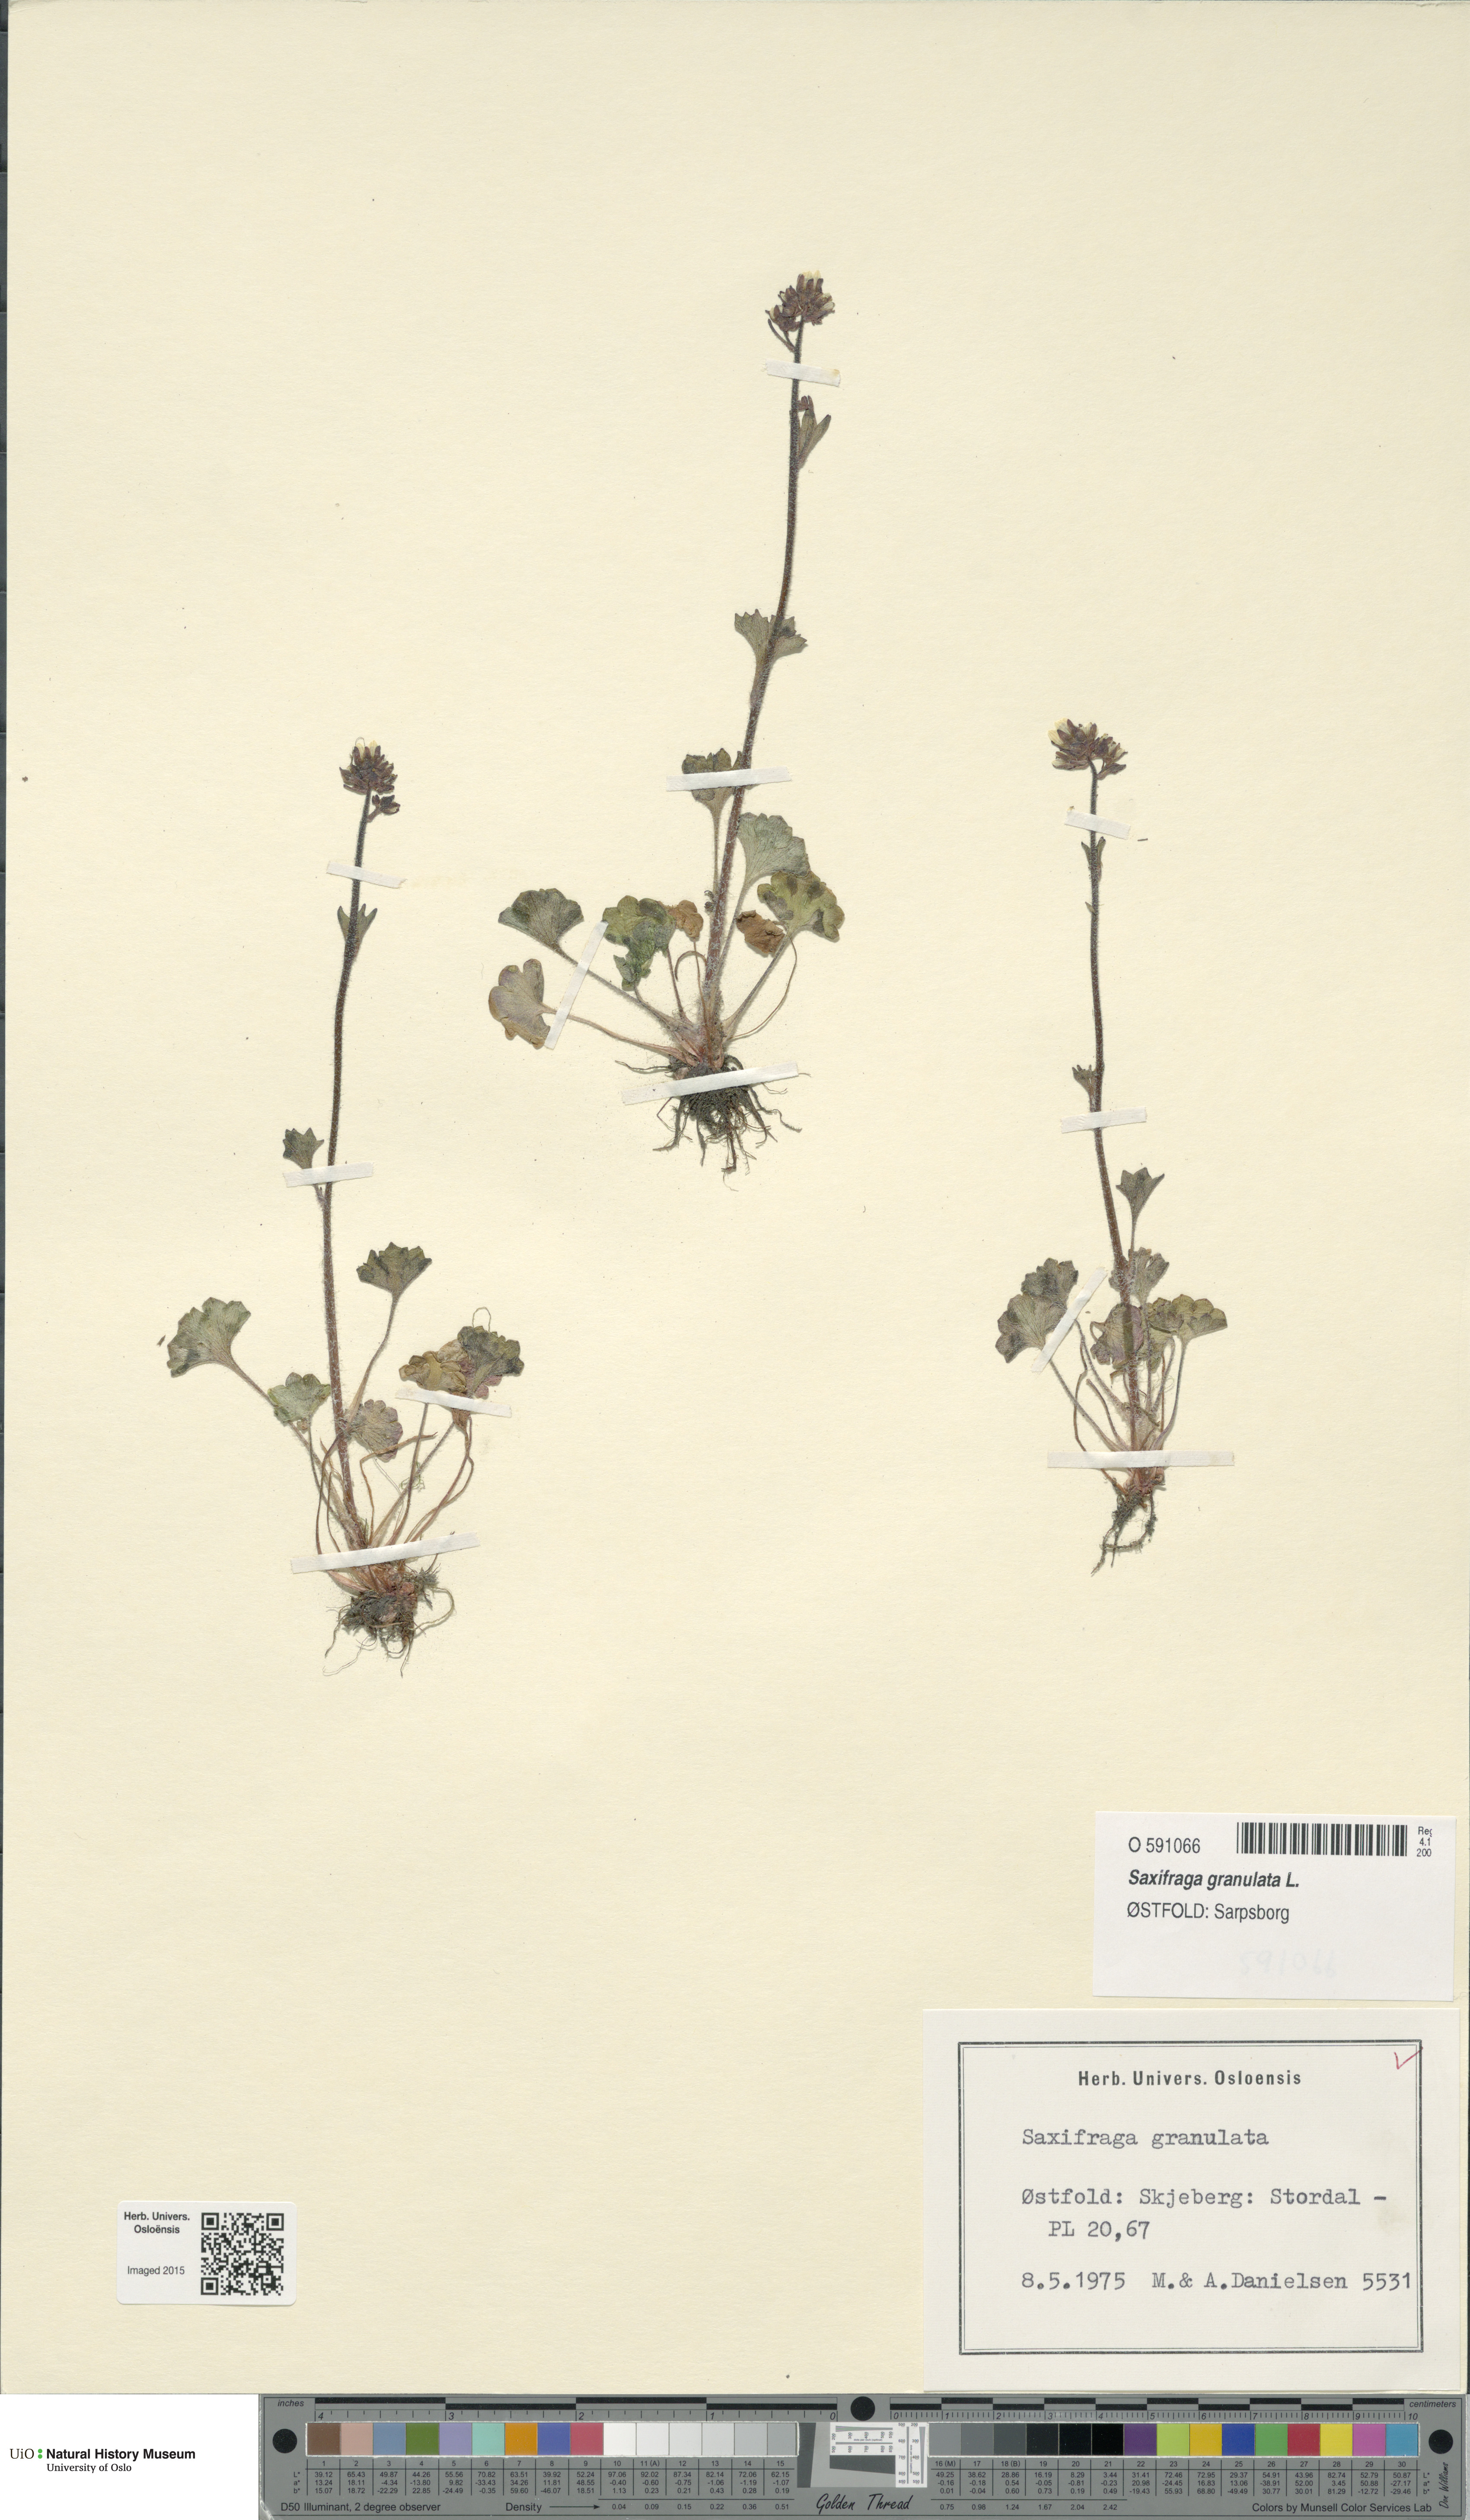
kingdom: Plantae
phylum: Tracheophyta
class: Magnoliopsida
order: Saxifragales
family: Saxifragaceae
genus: Saxifraga
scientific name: Saxifraga granulata
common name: Meadow saxifrage
